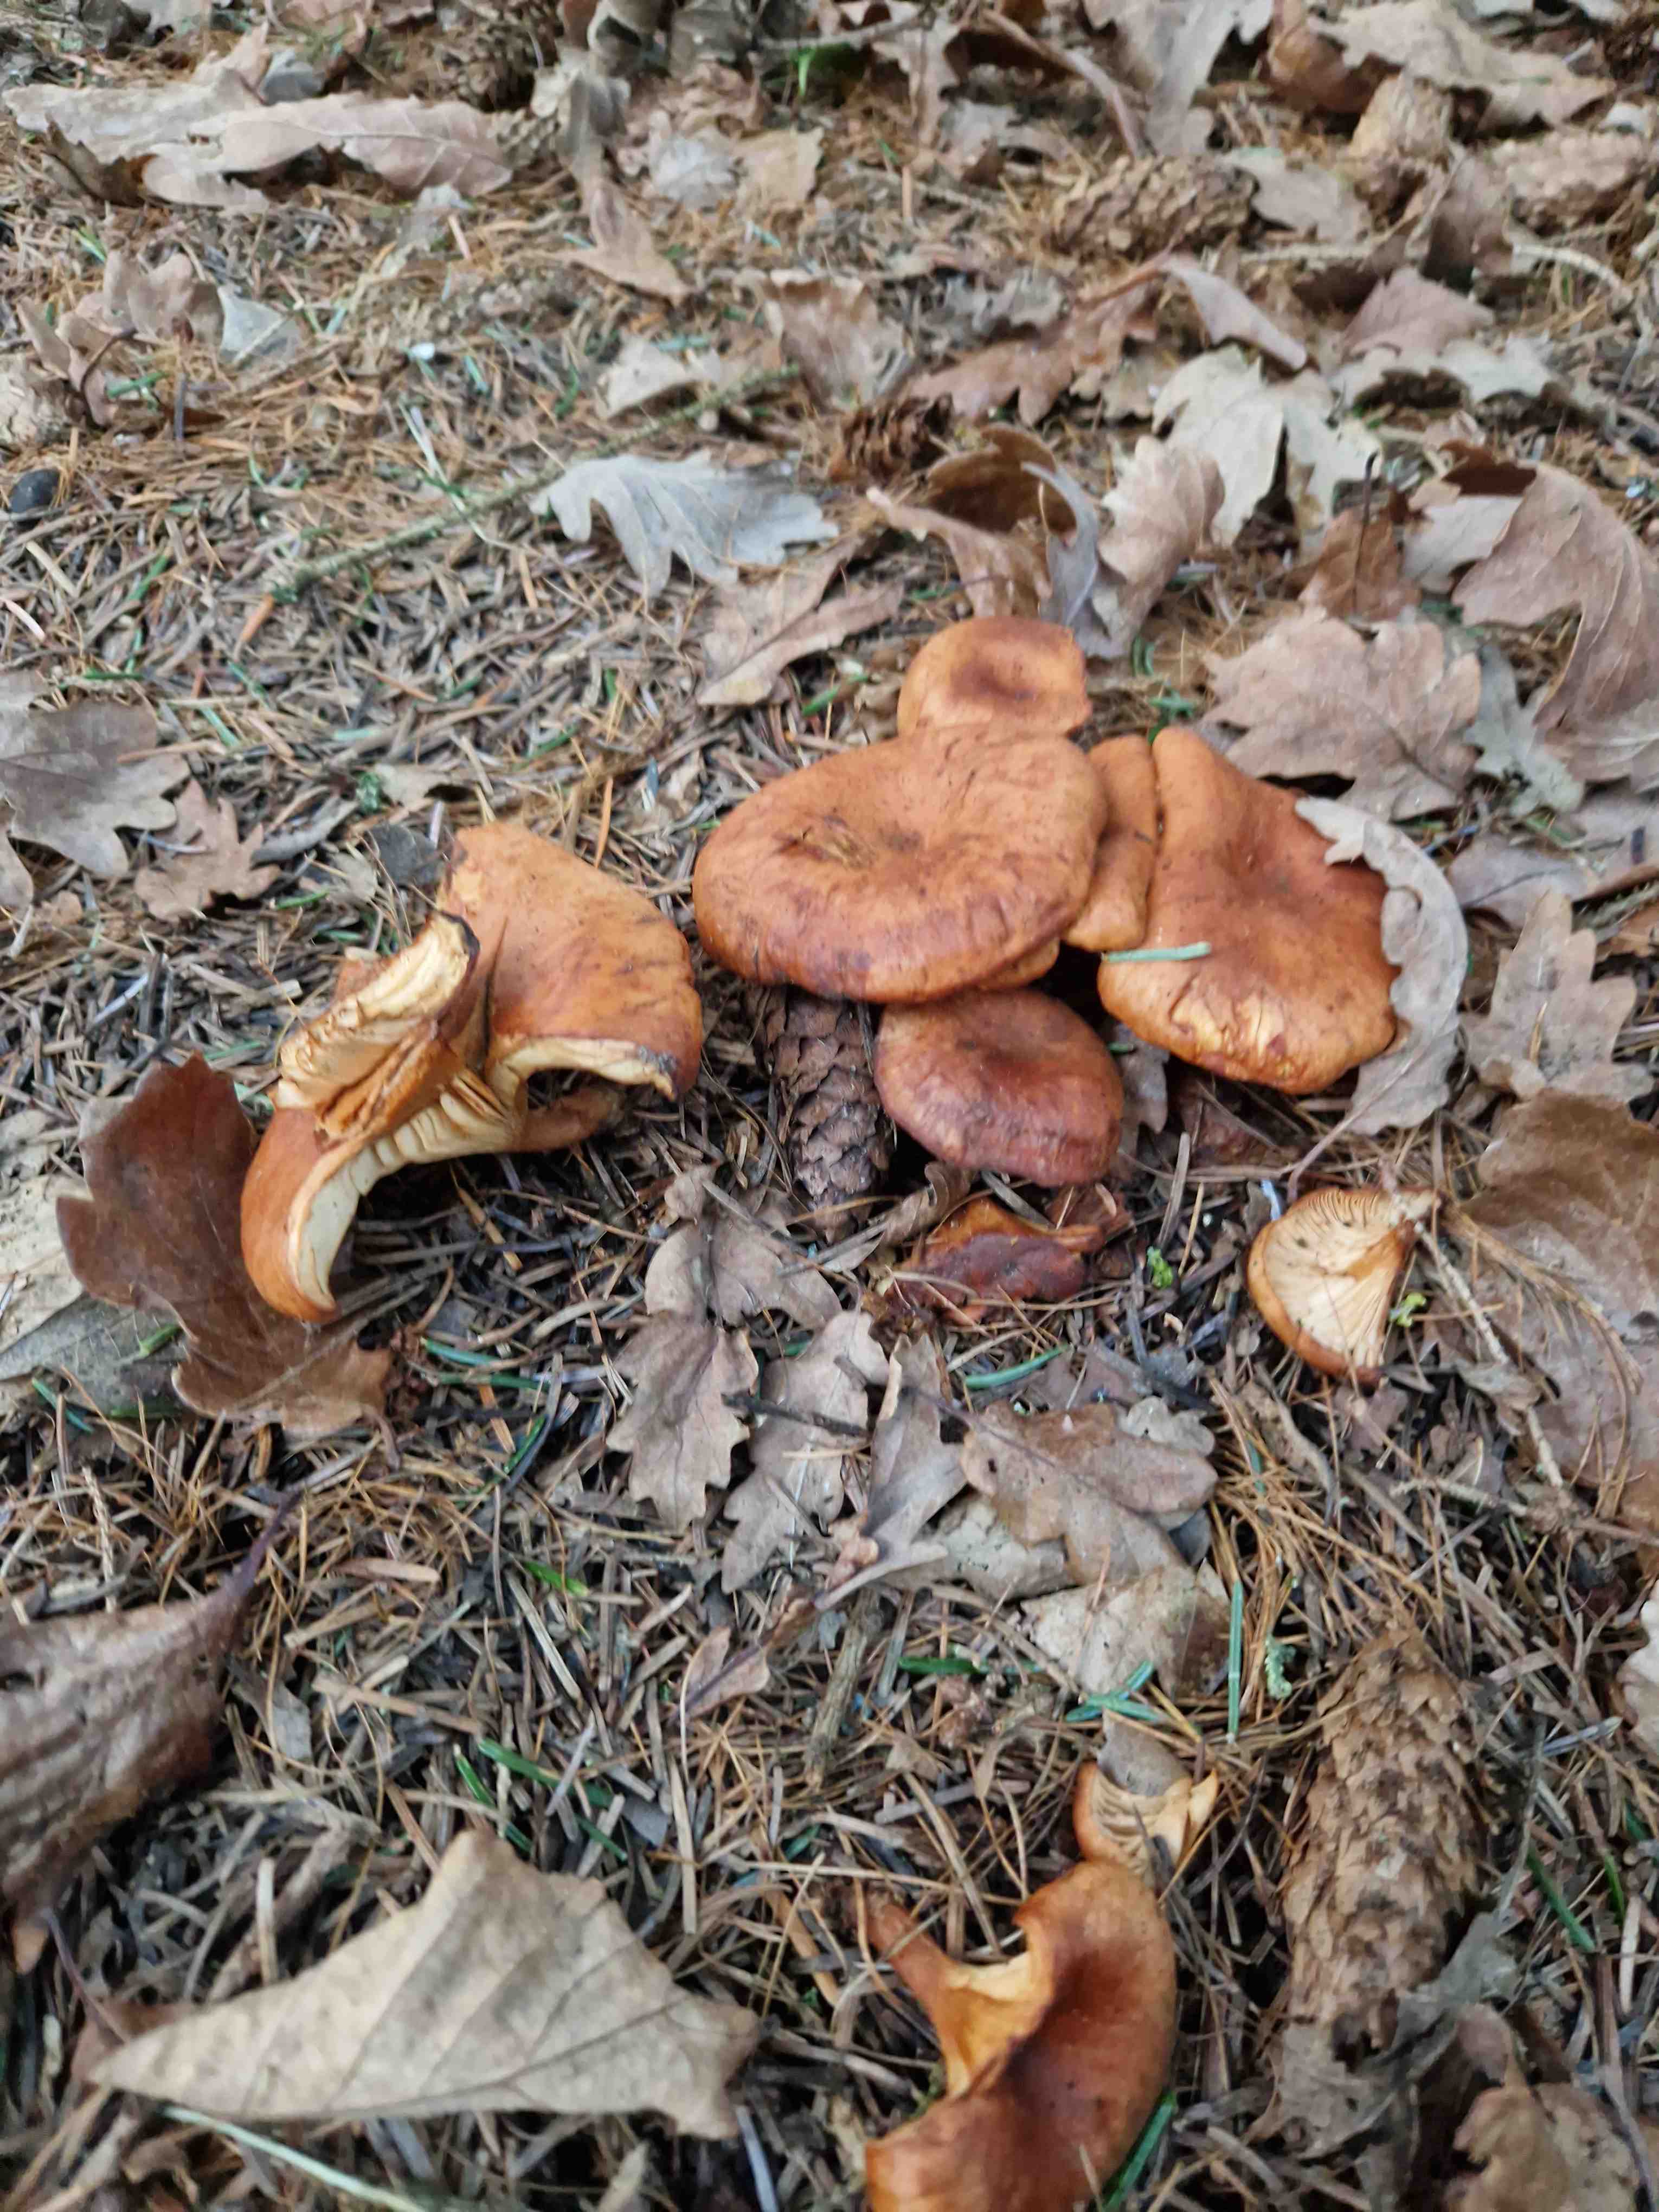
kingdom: Fungi
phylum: Basidiomycota
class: Agaricomycetes
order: Agaricales
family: Tricholomataceae
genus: Paralepista
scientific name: Paralepista flaccida
